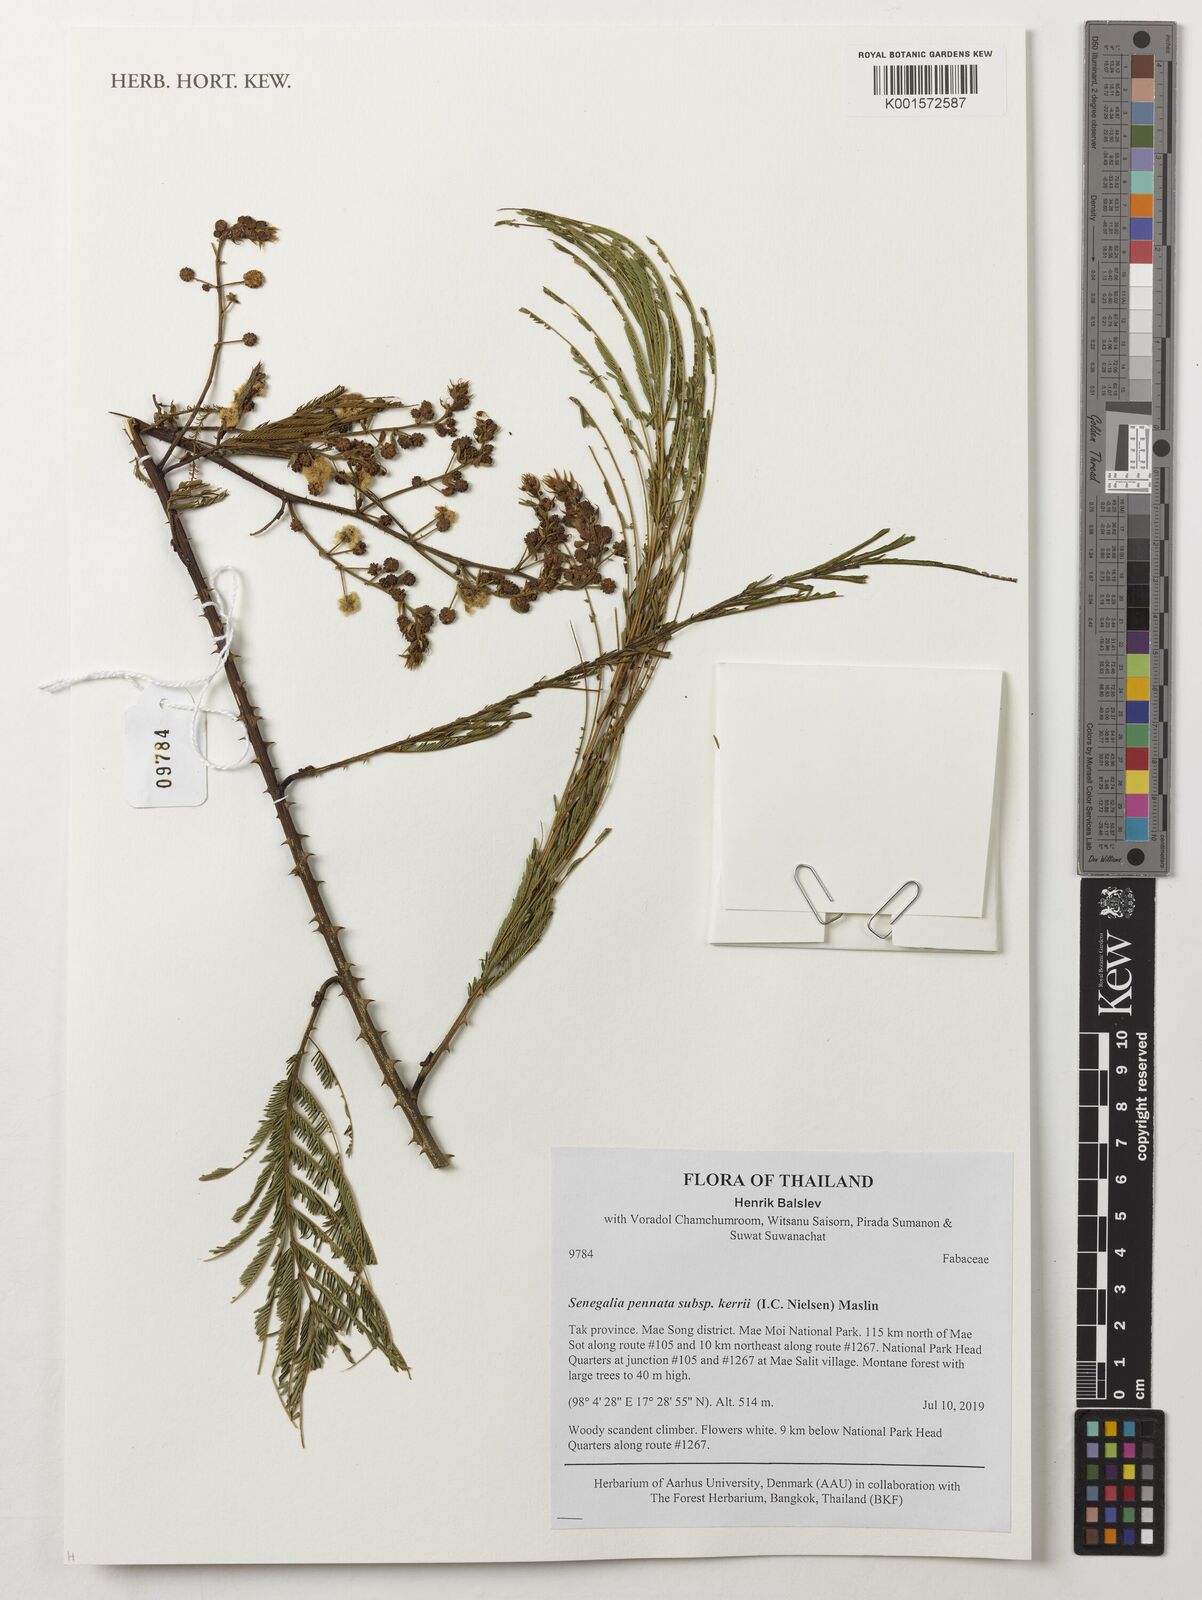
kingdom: Plantae
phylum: Tracheophyta
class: Magnoliopsida
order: Fabales
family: Fabaceae
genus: Senegalia
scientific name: Senegalia kerrii
